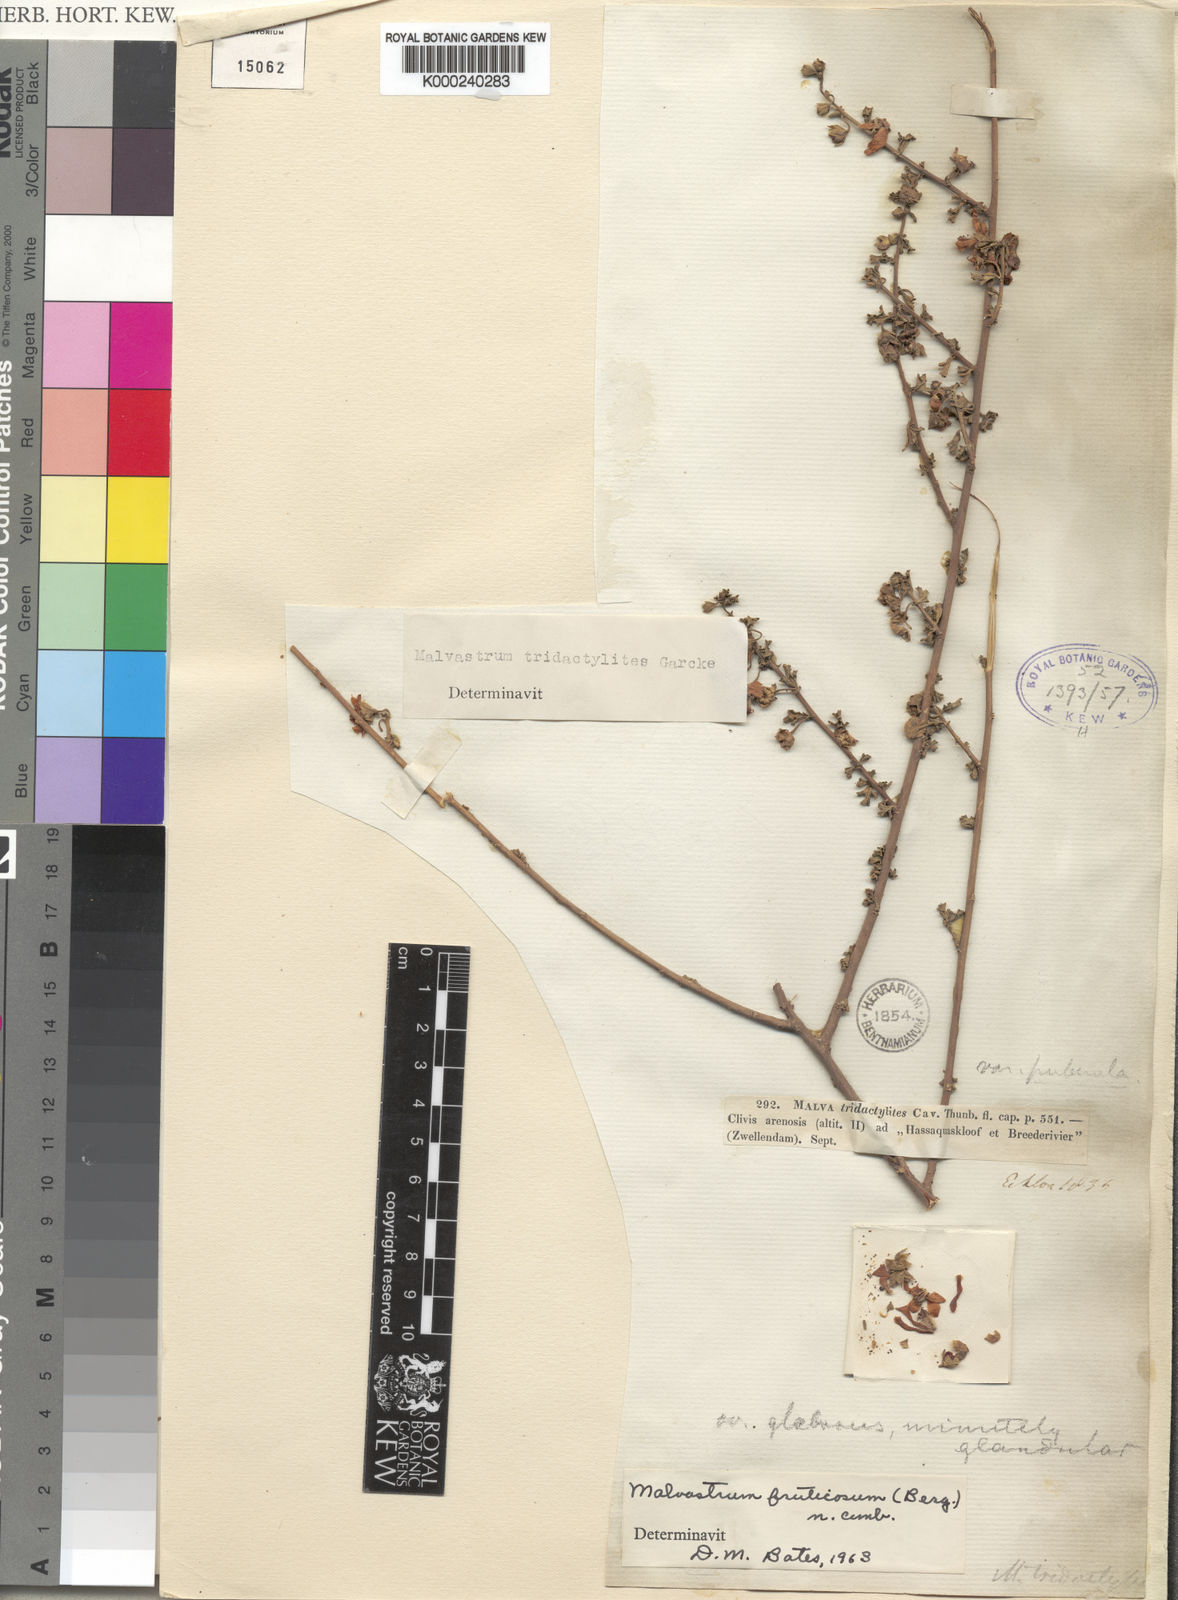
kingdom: Plantae
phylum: Tracheophyta
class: Magnoliopsida
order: Malvales
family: Malvaceae
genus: Malvastrum
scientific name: Malvastrum
